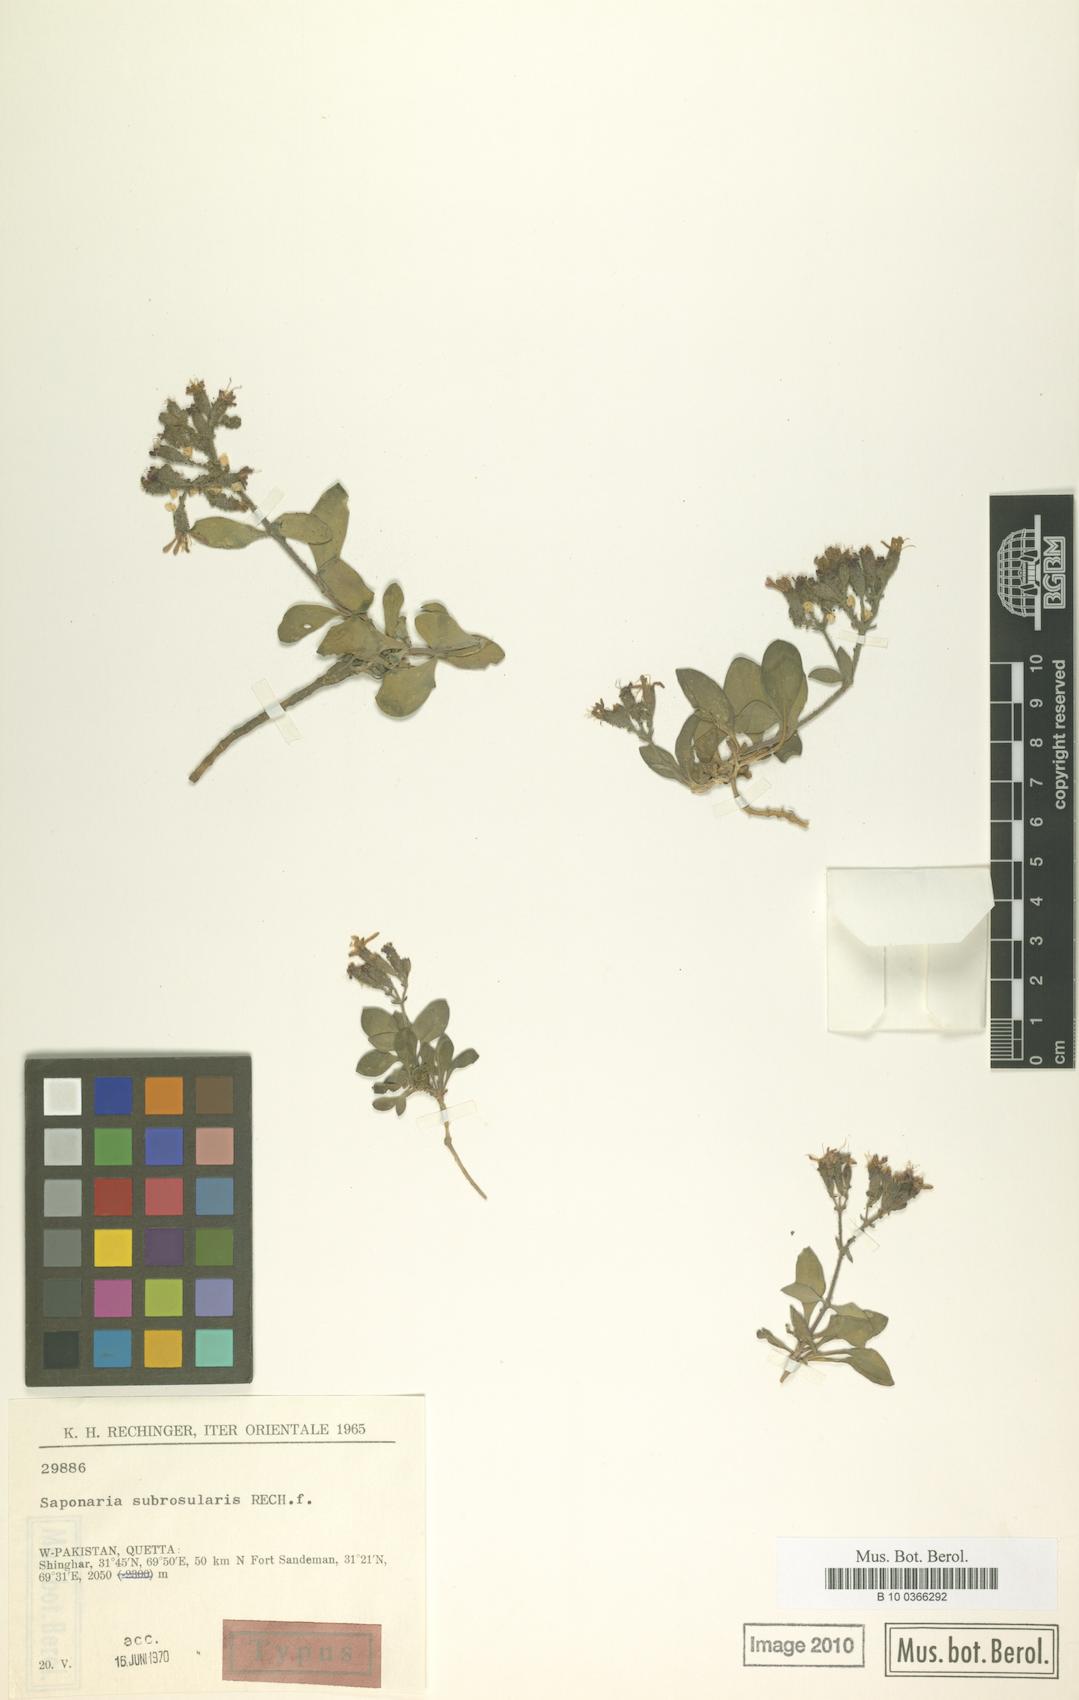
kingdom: Plantae
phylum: Tracheophyta
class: Magnoliopsida
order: Caryophyllales
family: Caryophyllaceae
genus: Saponaria
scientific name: Saponaria subrosularis
